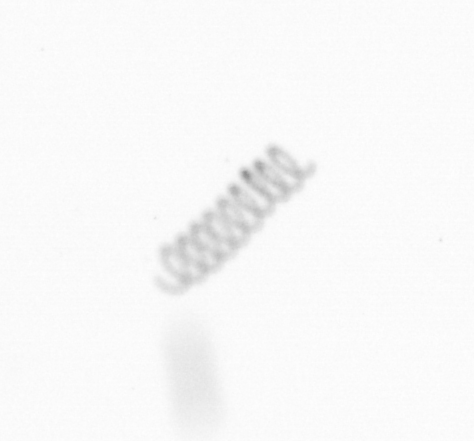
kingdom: Chromista
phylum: Ochrophyta
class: Bacillariophyceae
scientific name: Bacillariophyceae
